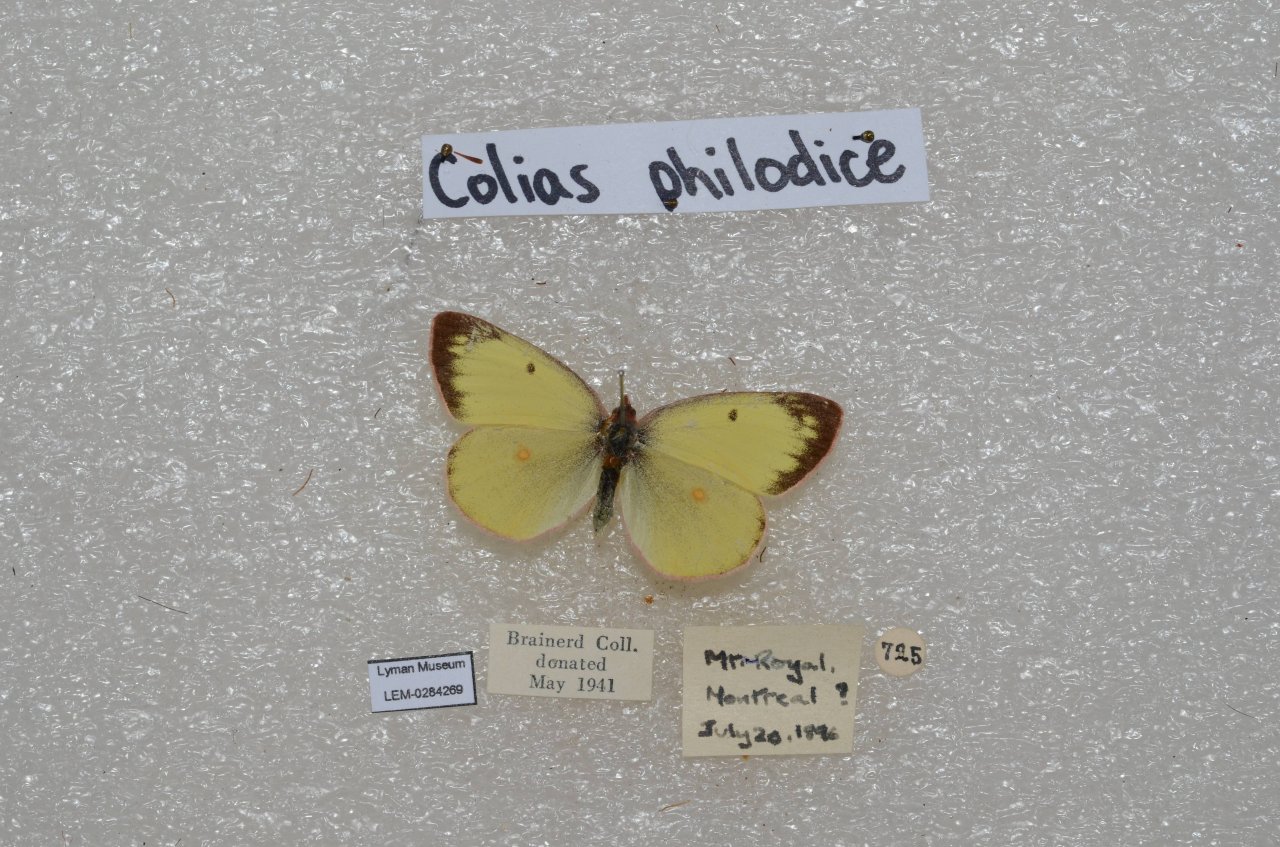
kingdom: Animalia
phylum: Arthropoda
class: Insecta
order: Lepidoptera
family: Pieridae
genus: Colias
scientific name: Colias philodice
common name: Clouded Sulphur
